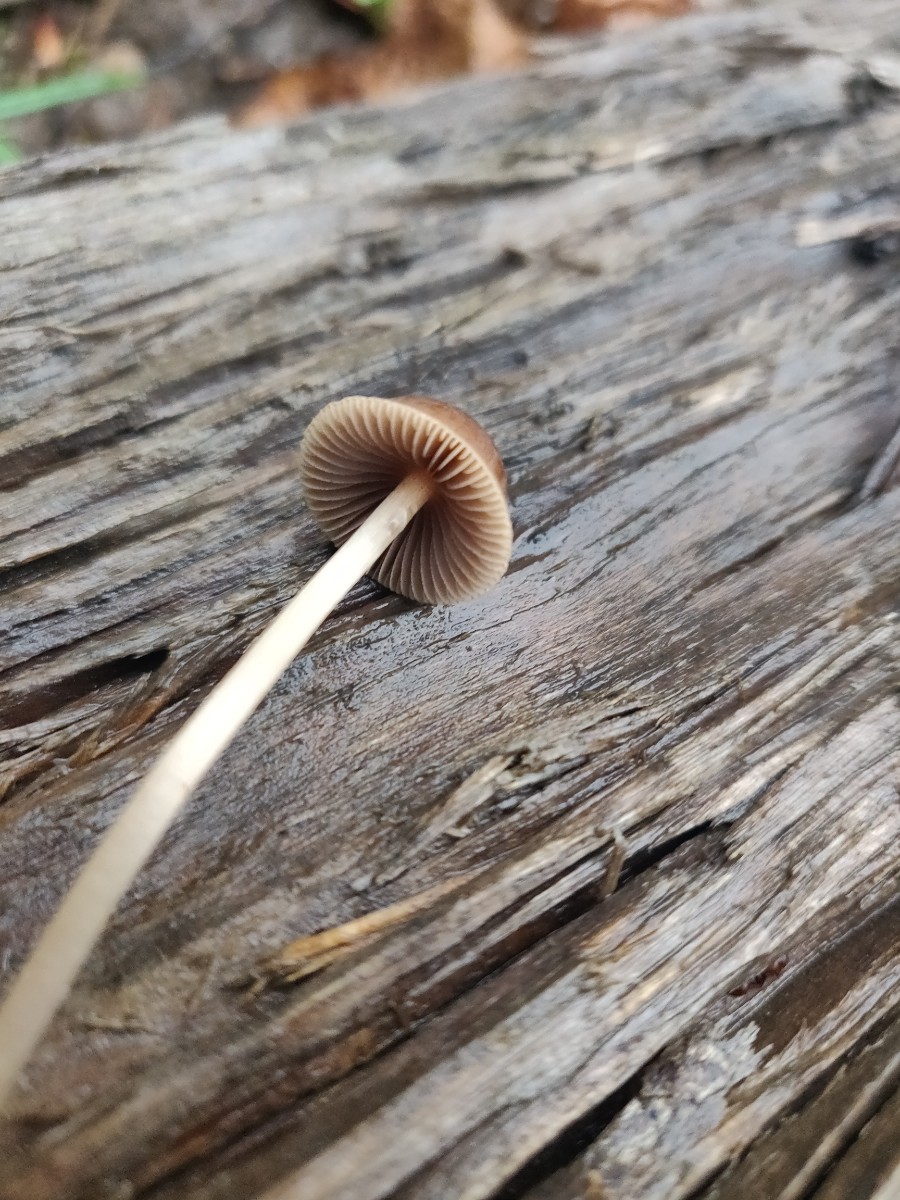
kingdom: Fungi
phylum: Basidiomycota
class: Agaricomycetes
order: Agaricales
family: Psathyrellaceae
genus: Psathyrella
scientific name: Psathyrella
